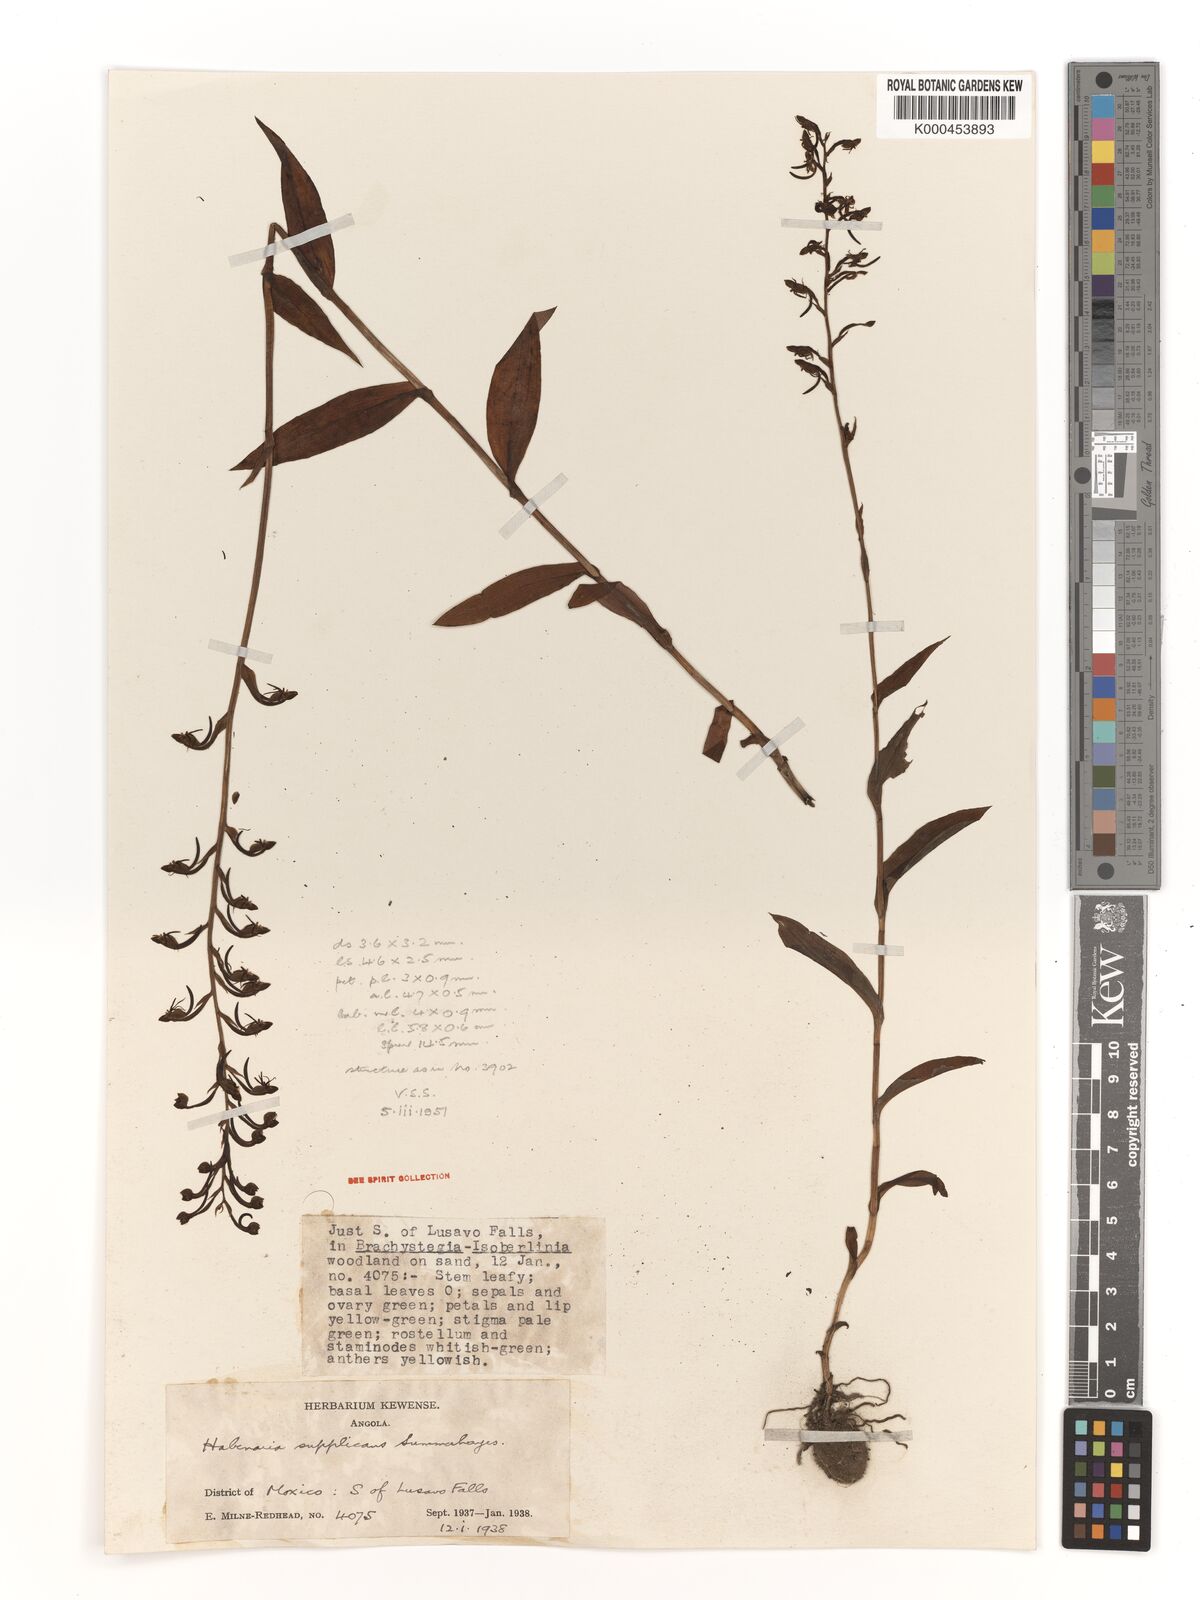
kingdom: Plantae
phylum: Tracheophyta
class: Liliopsida
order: Asparagales
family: Orchidaceae
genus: Habenaria
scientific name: Habenaria supplicans
